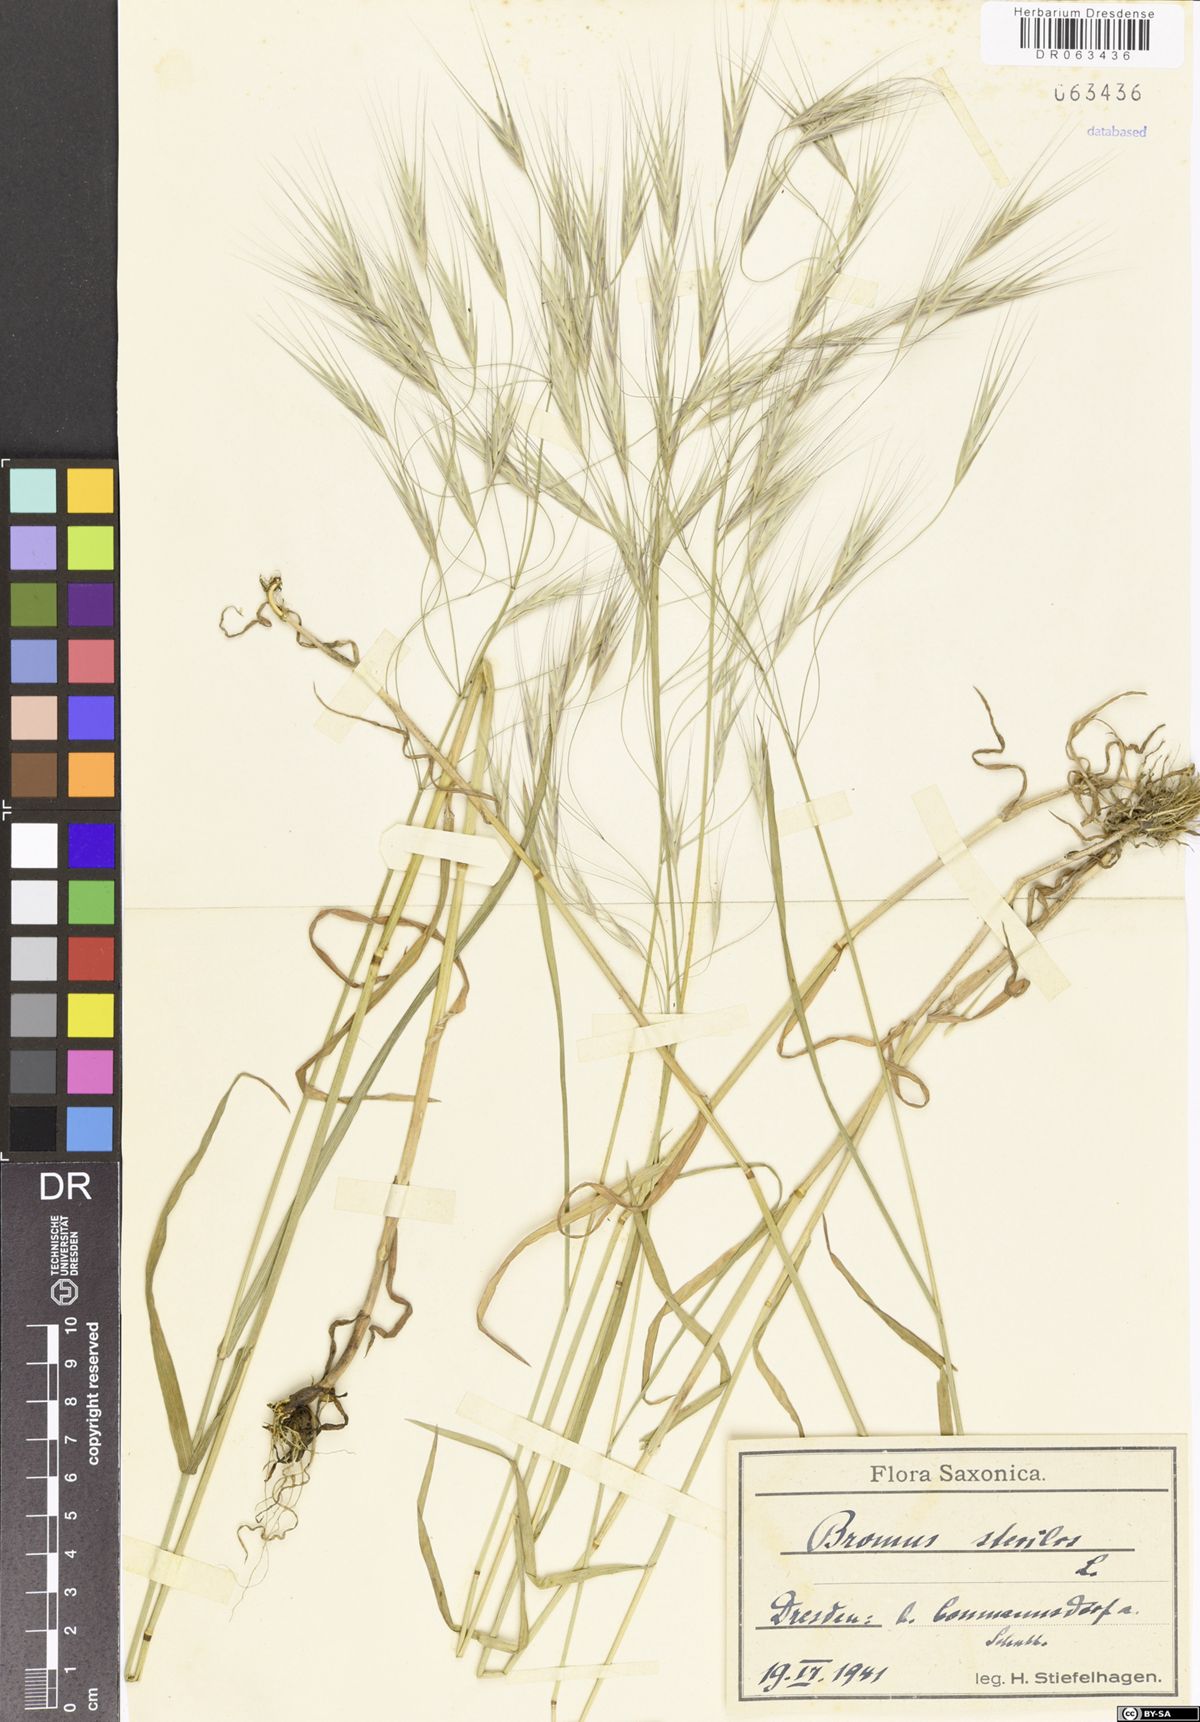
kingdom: Plantae
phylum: Tracheophyta
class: Liliopsida
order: Poales
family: Poaceae
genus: Bromus
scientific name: Bromus sterilis
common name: Poverty brome
